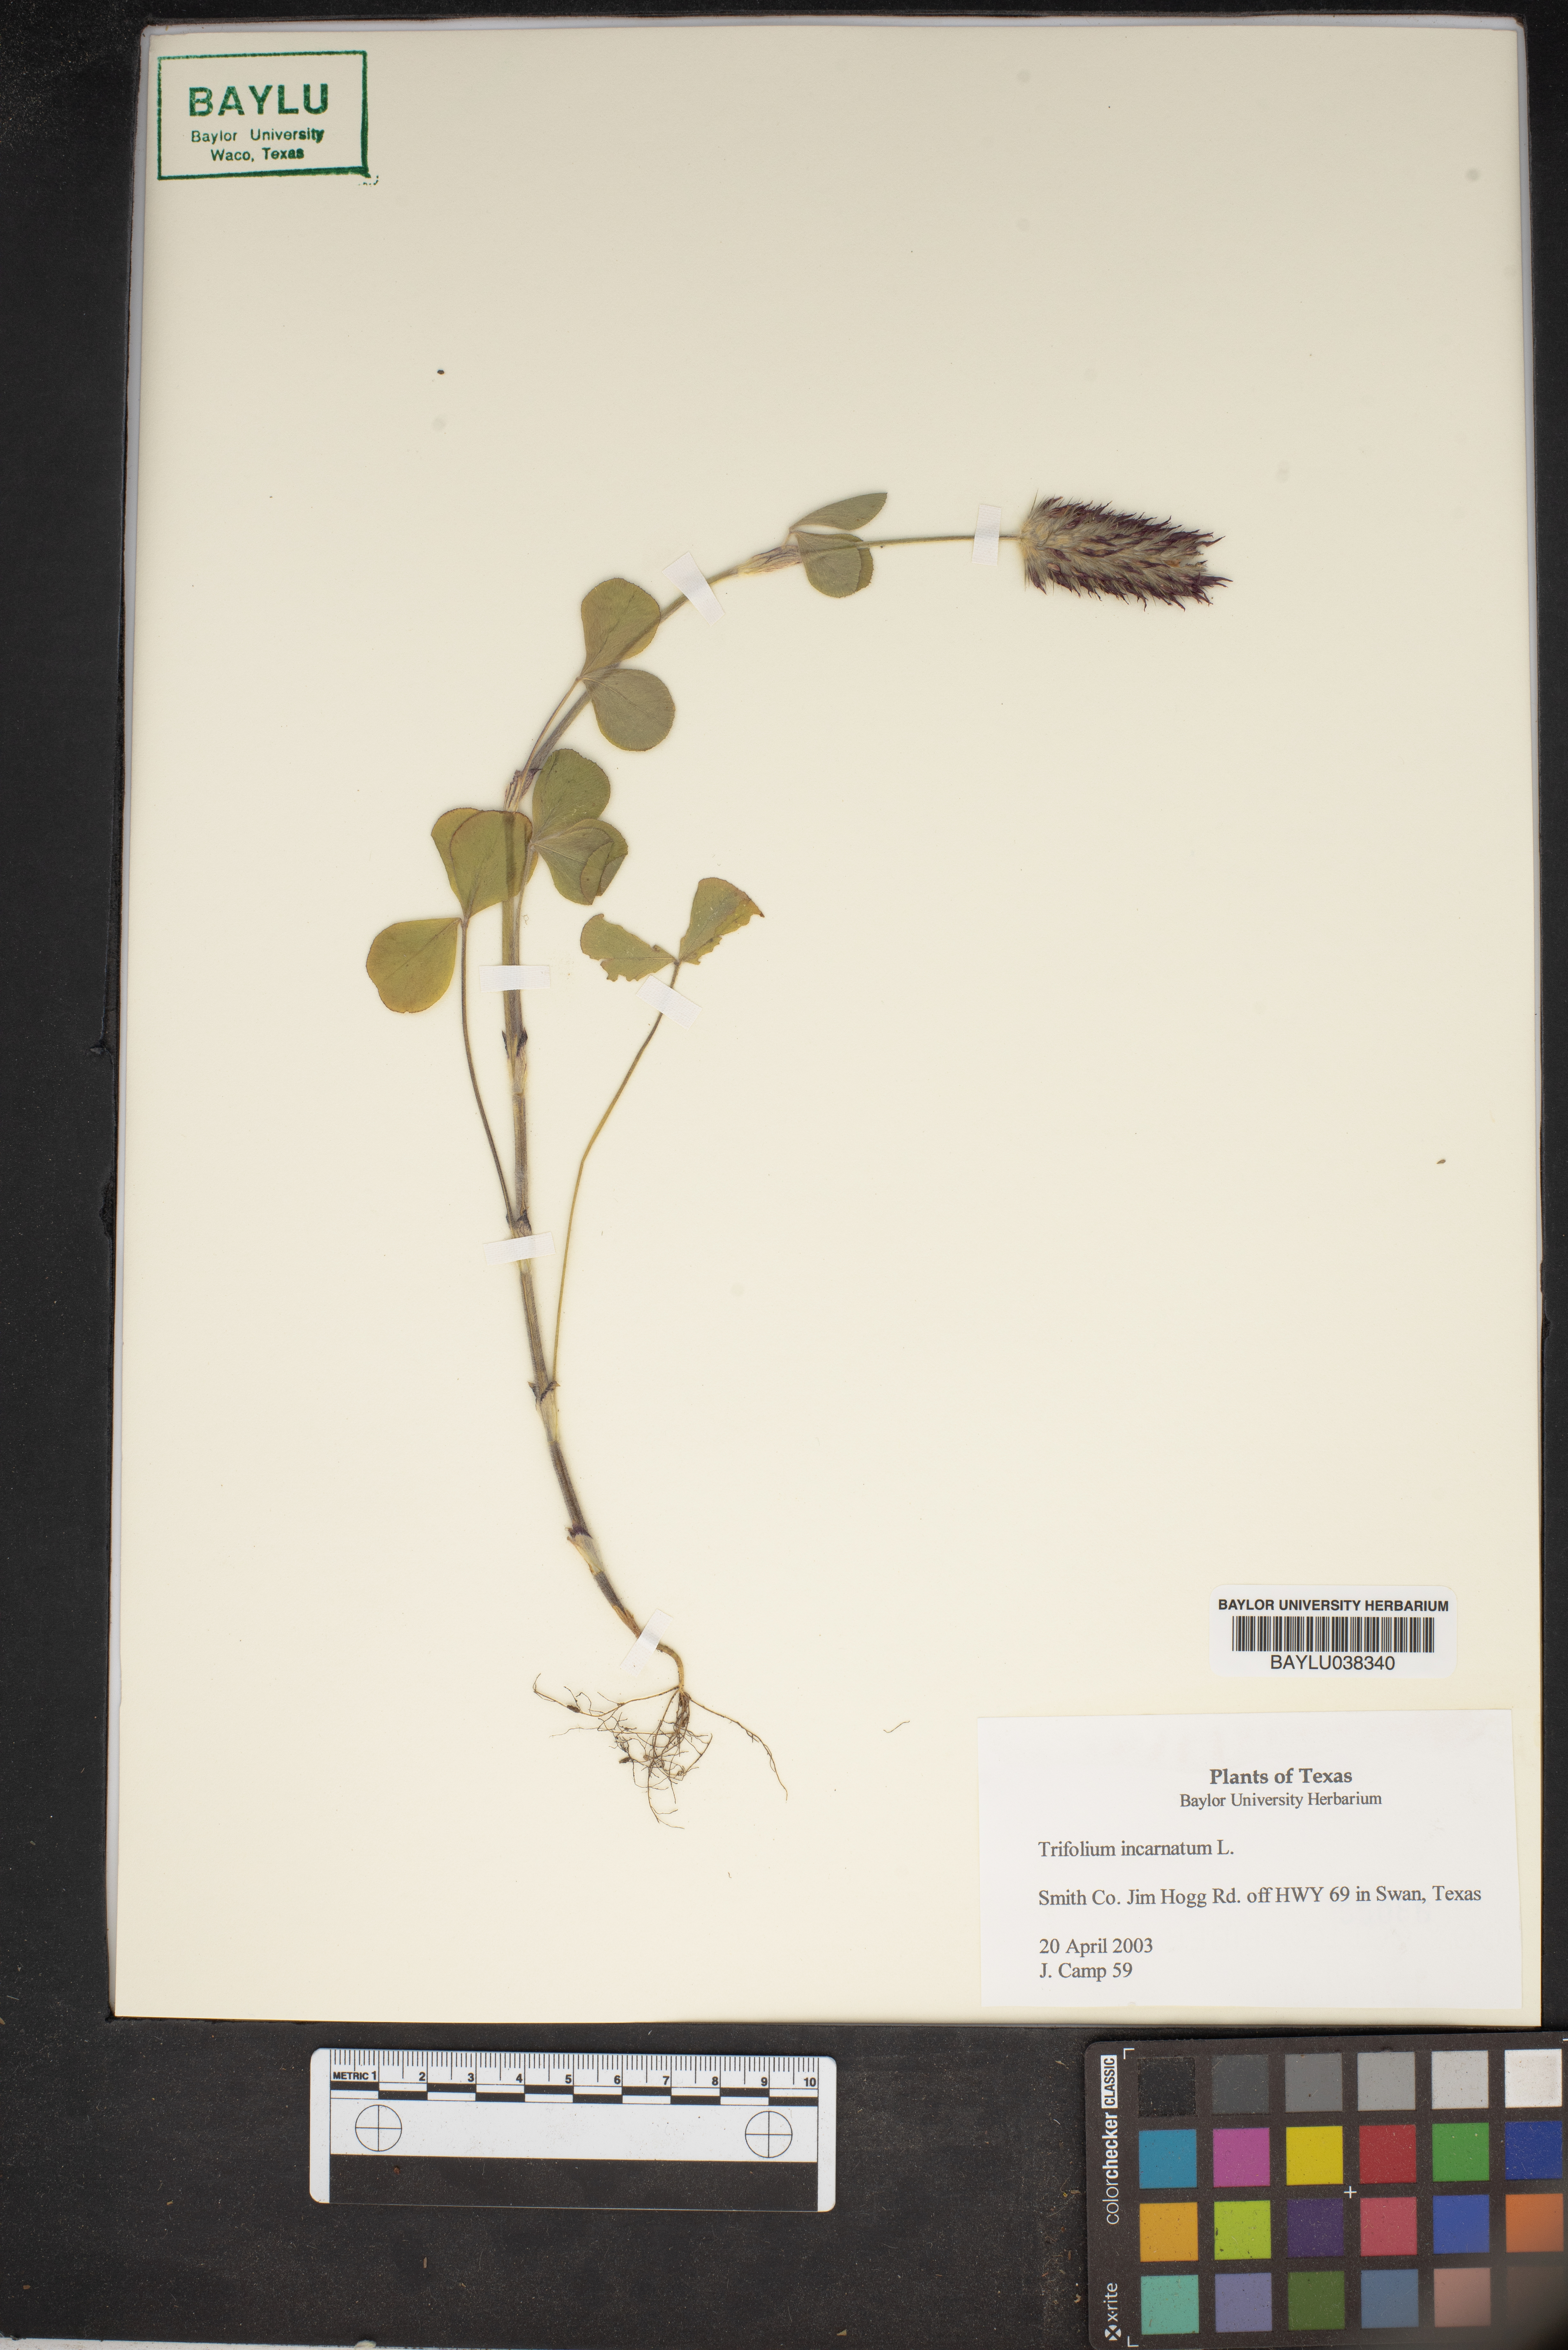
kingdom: Plantae
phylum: Tracheophyta
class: Magnoliopsida
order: Fabales
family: Fabaceae
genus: Trifolium
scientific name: Trifolium incarnatum
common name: Crimson clover
